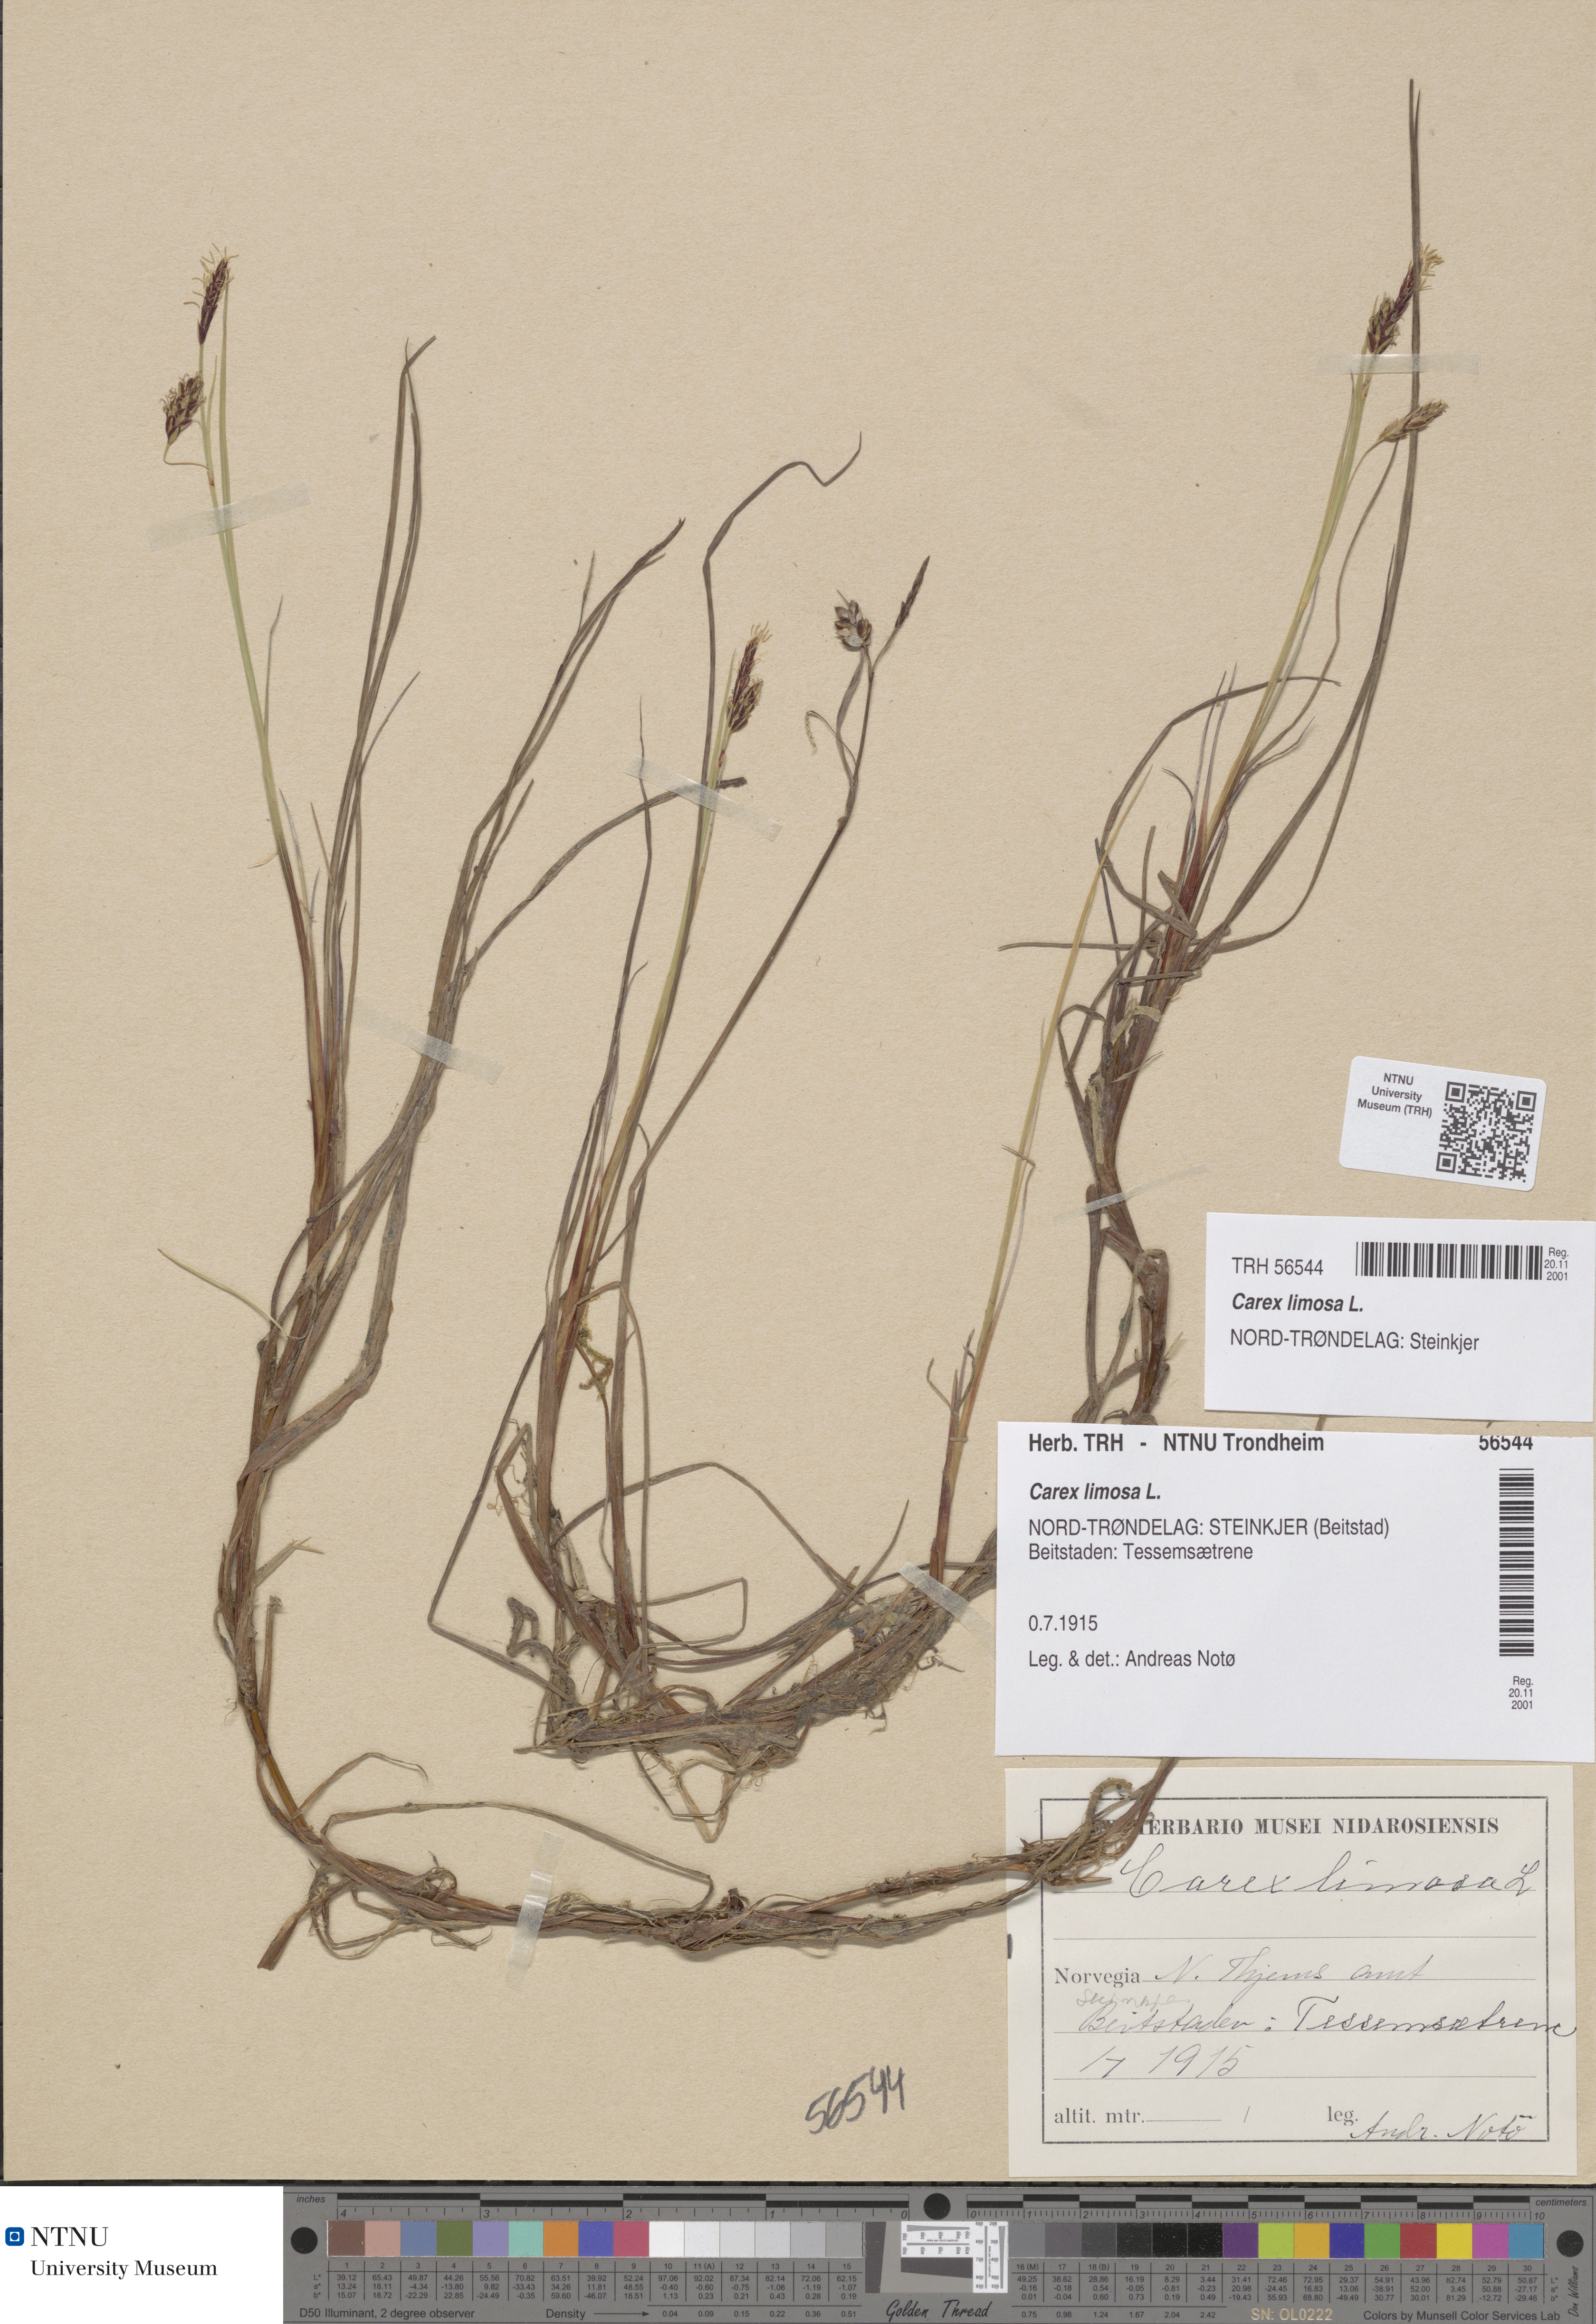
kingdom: Plantae
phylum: Tracheophyta
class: Liliopsida
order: Poales
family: Cyperaceae
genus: Carex
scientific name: Carex limosa
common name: Bog sedge
